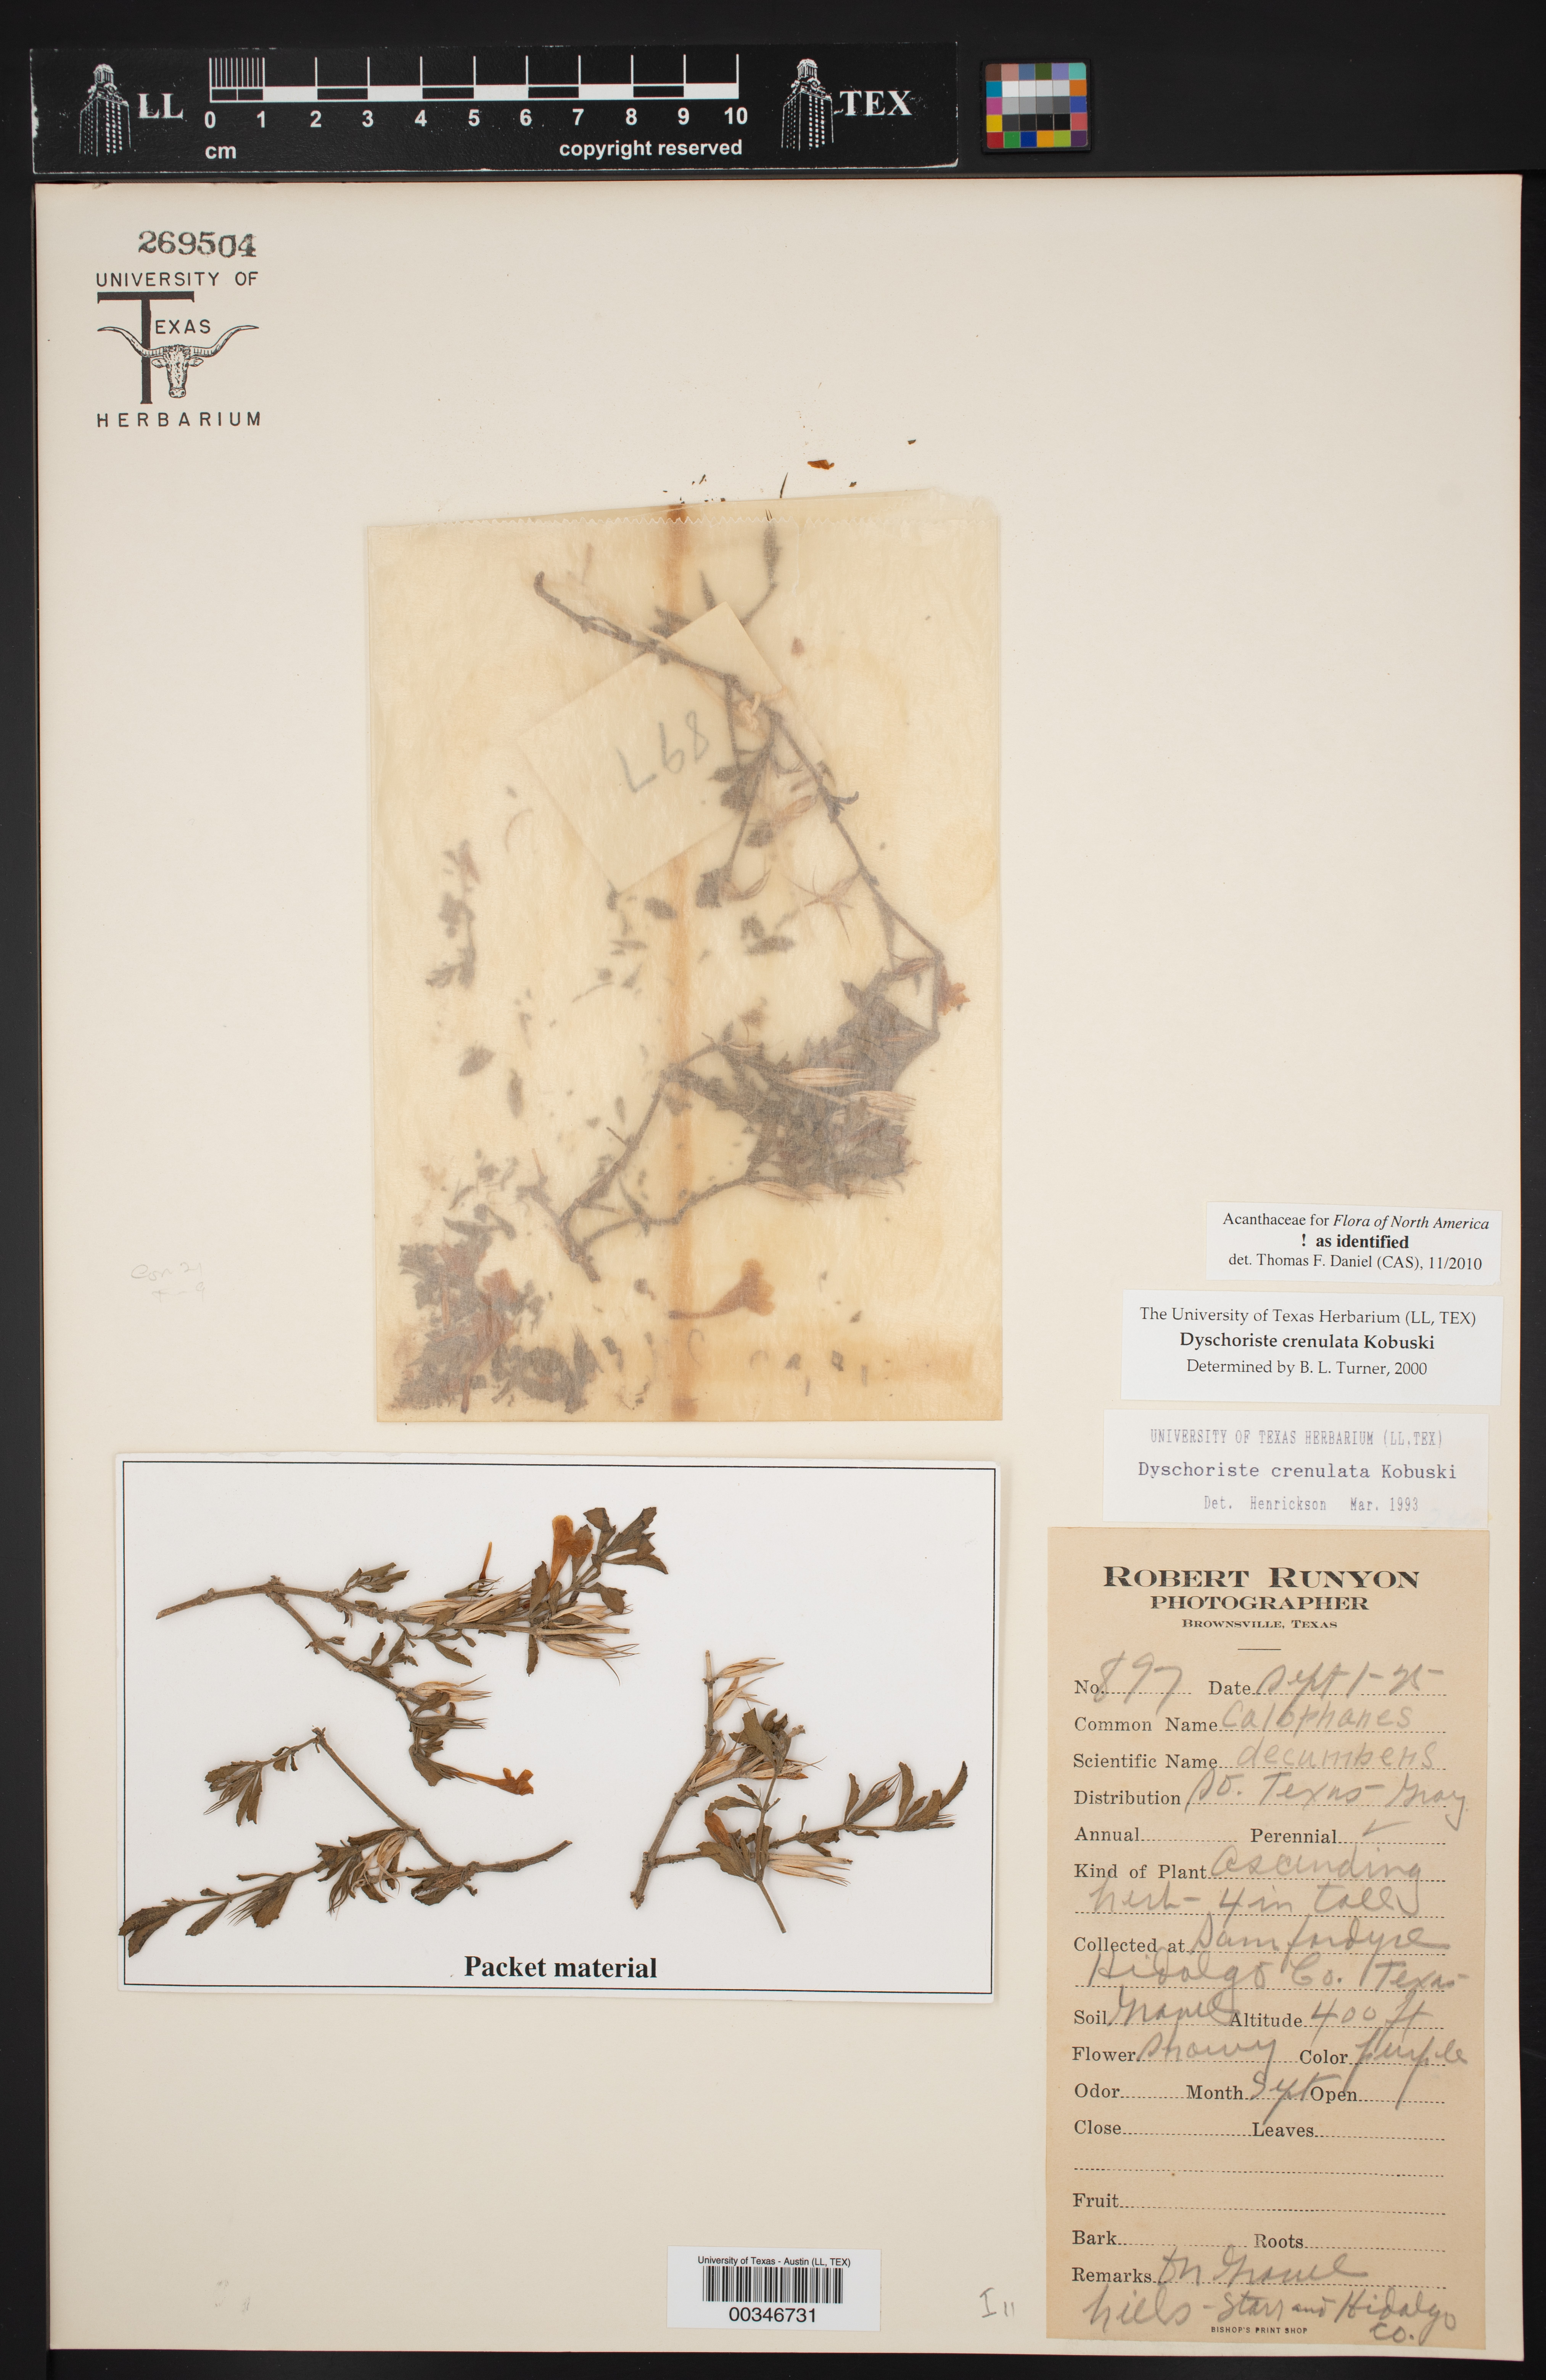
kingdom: Plantae
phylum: Tracheophyta
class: Magnoliopsida
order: Lamiales
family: Acanthaceae
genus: Dyschoriste
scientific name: Dyschoriste crenulata
